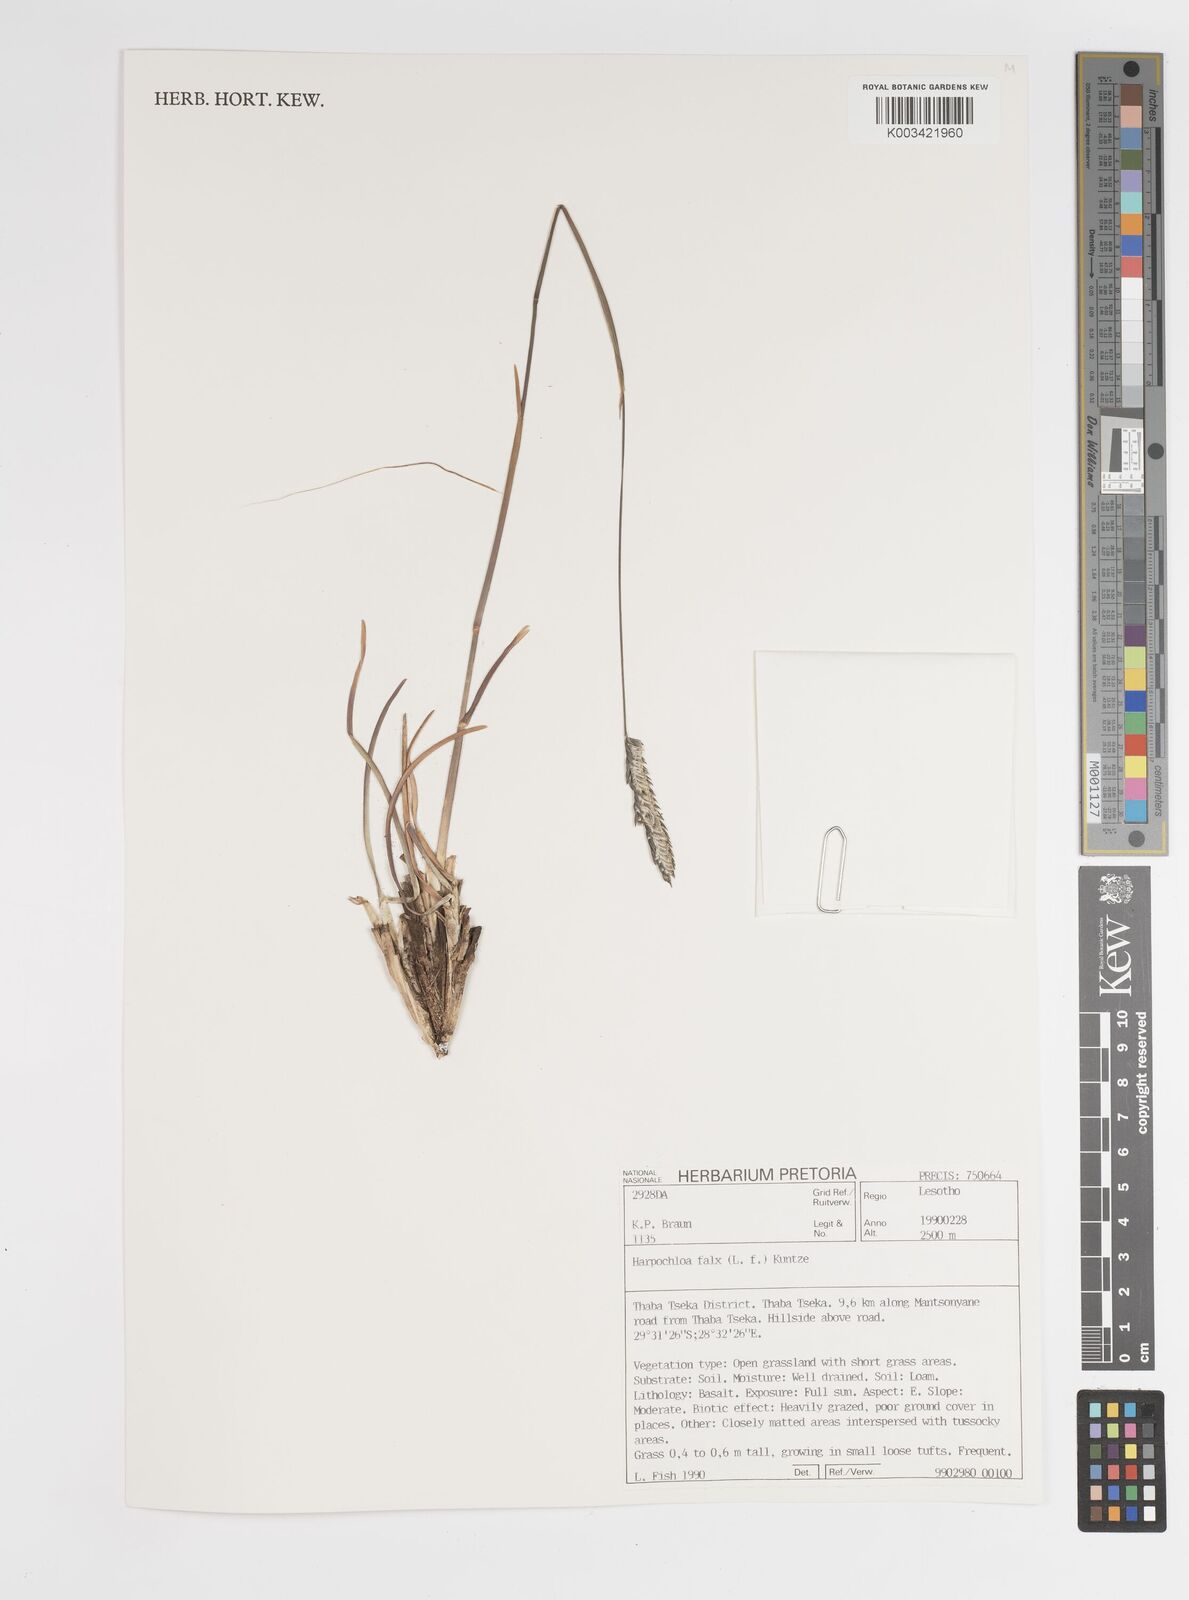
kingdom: Plantae
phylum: Tracheophyta
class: Liliopsida
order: Poales
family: Poaceae
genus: Harpochloa
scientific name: Harpochloa falx
